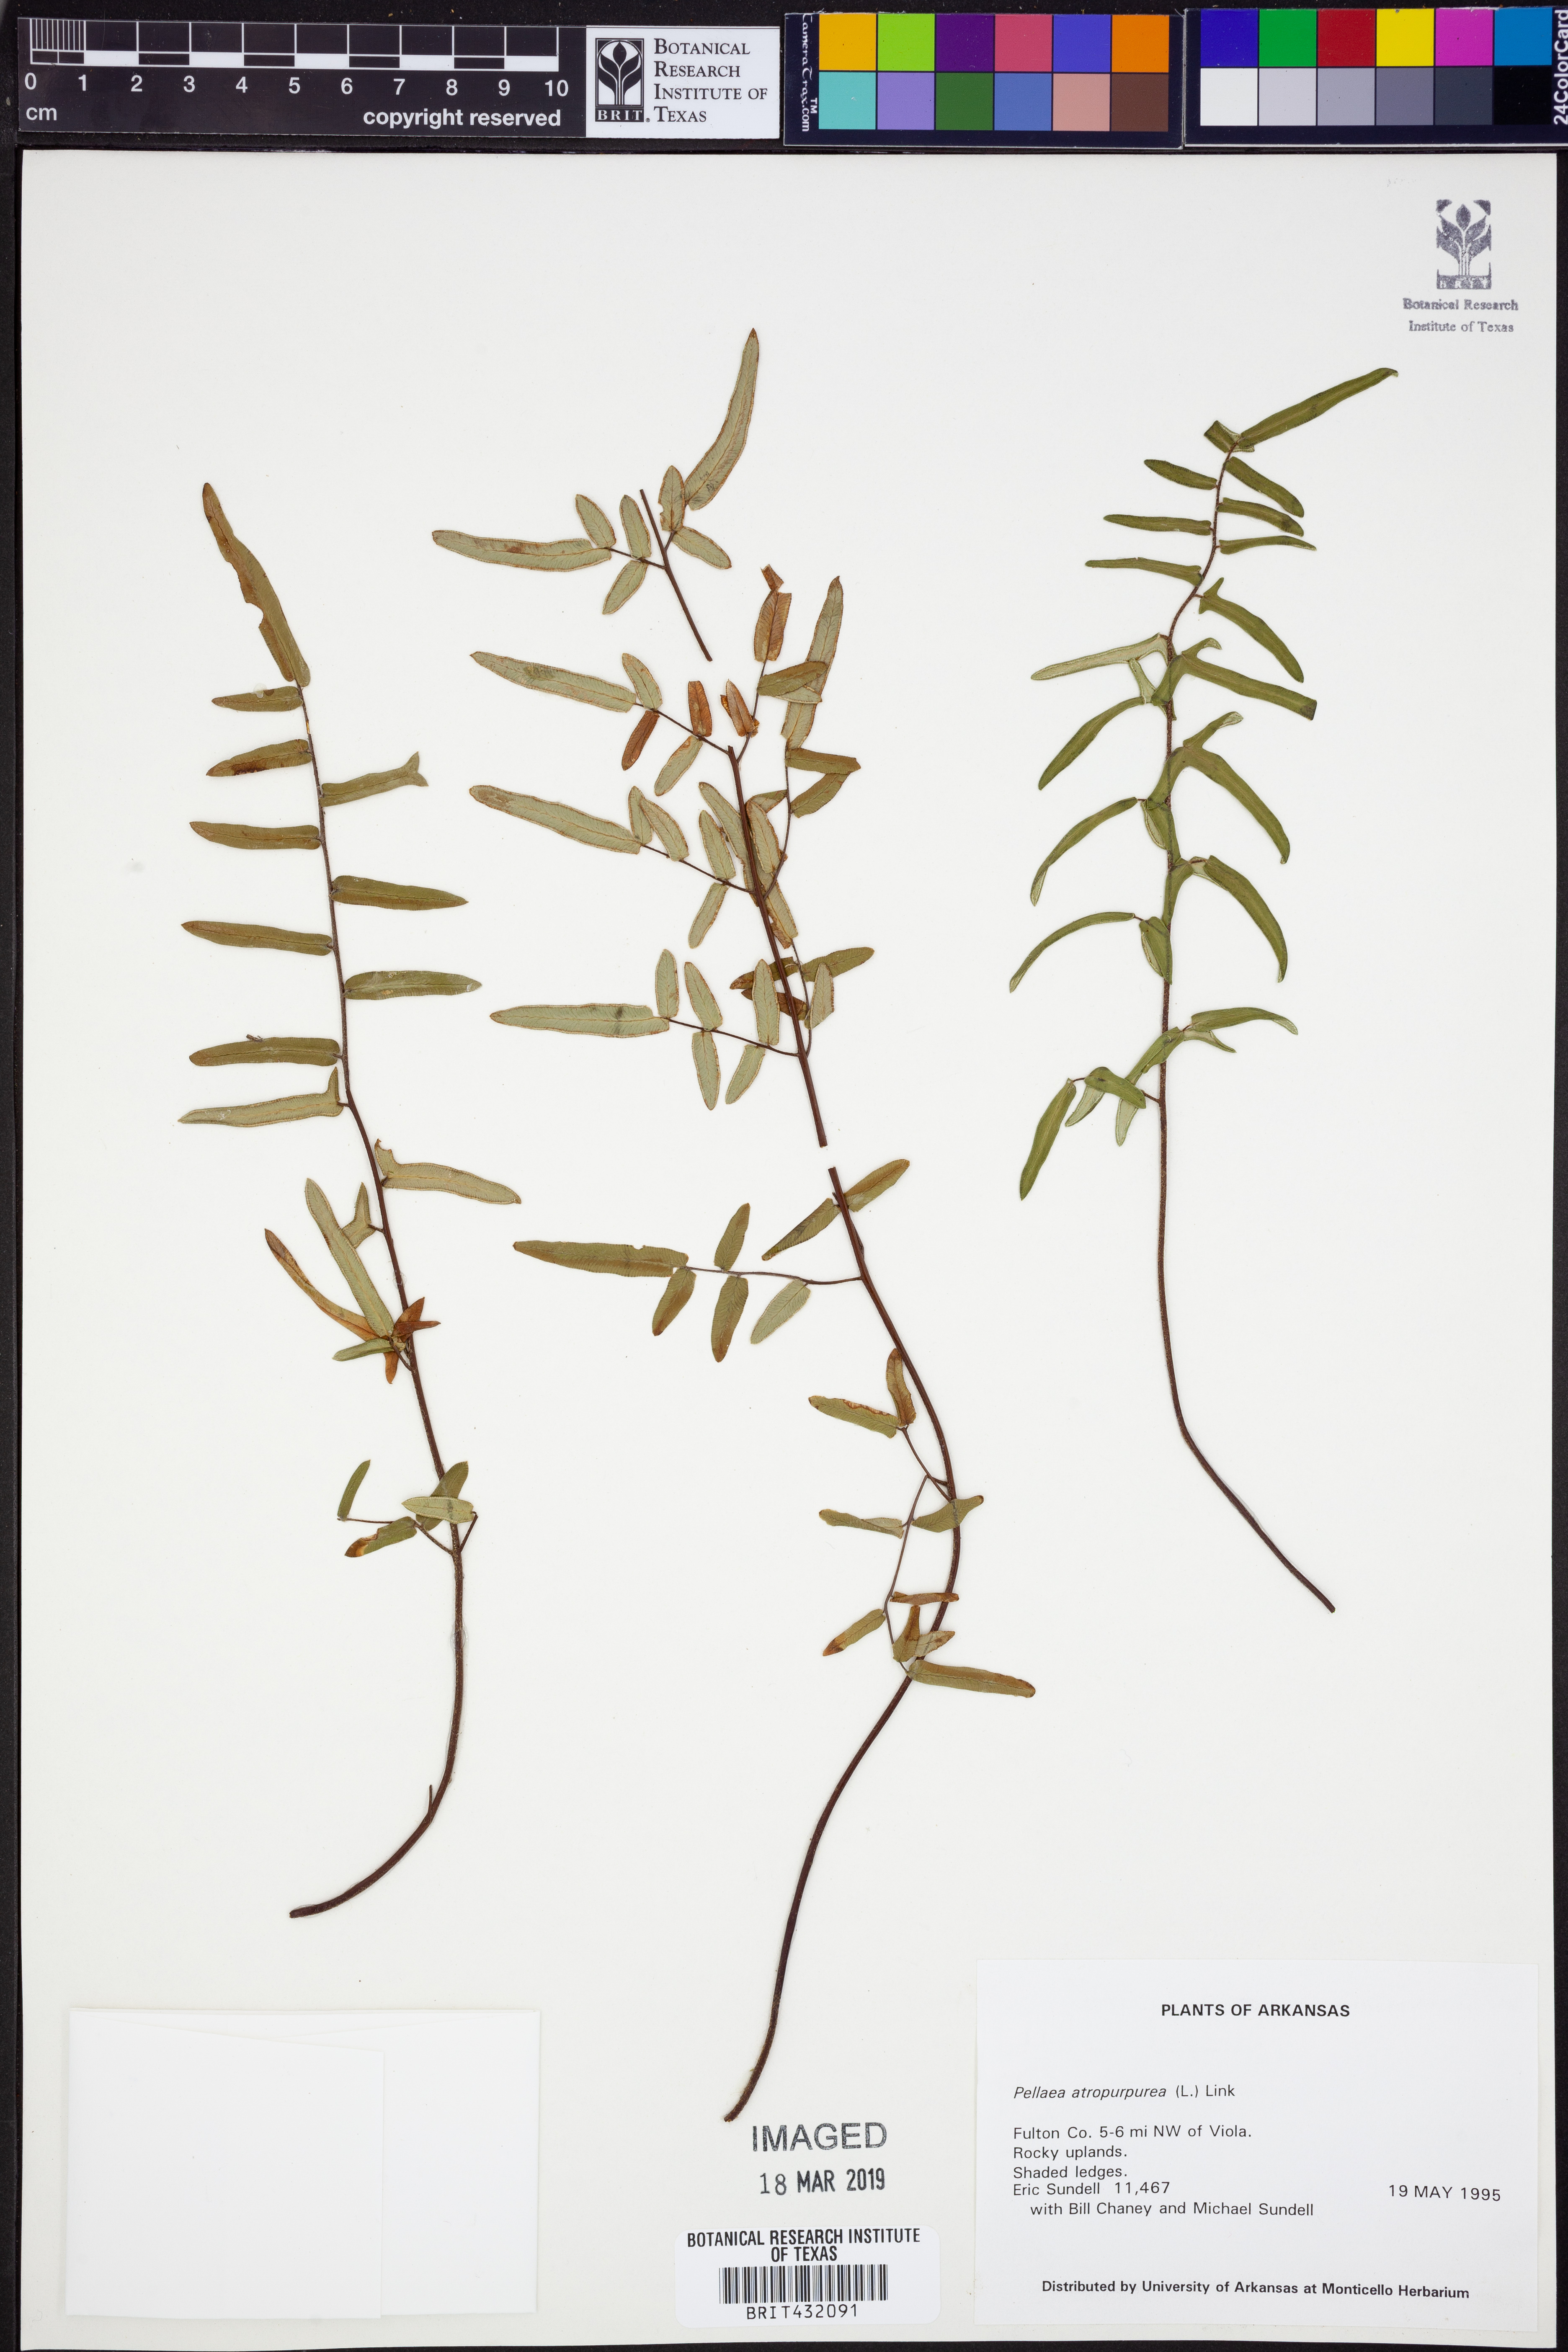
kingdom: Plantae
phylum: Tracheophyta
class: Polypodiopsida
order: Polypodiales
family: Pteridaceae
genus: Pellaea
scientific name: Pellaea atropurpurea
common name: Hairy cliffbrake
